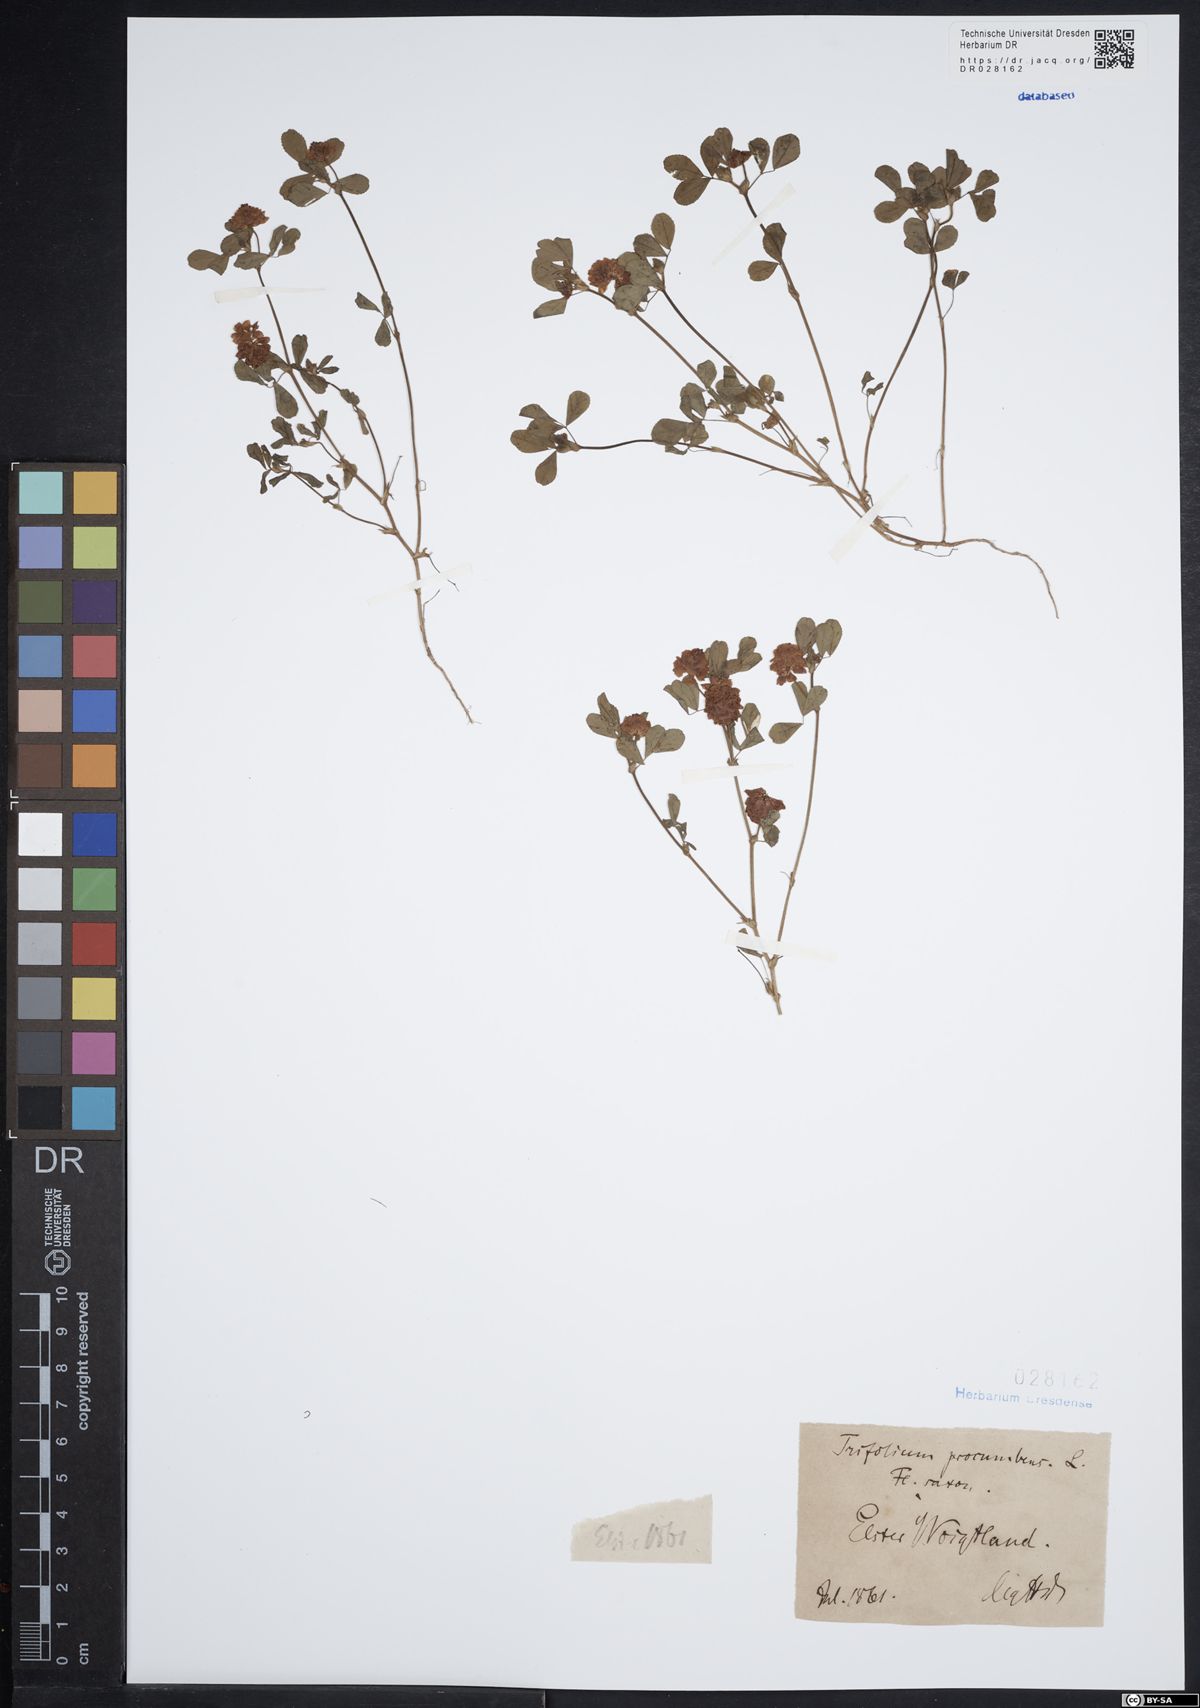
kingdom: Plantae
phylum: Tracheophyta
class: Magnoliopsida
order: Fabales
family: Fabaceae
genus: Trifolium
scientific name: Trifolium campestre
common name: Field clover
